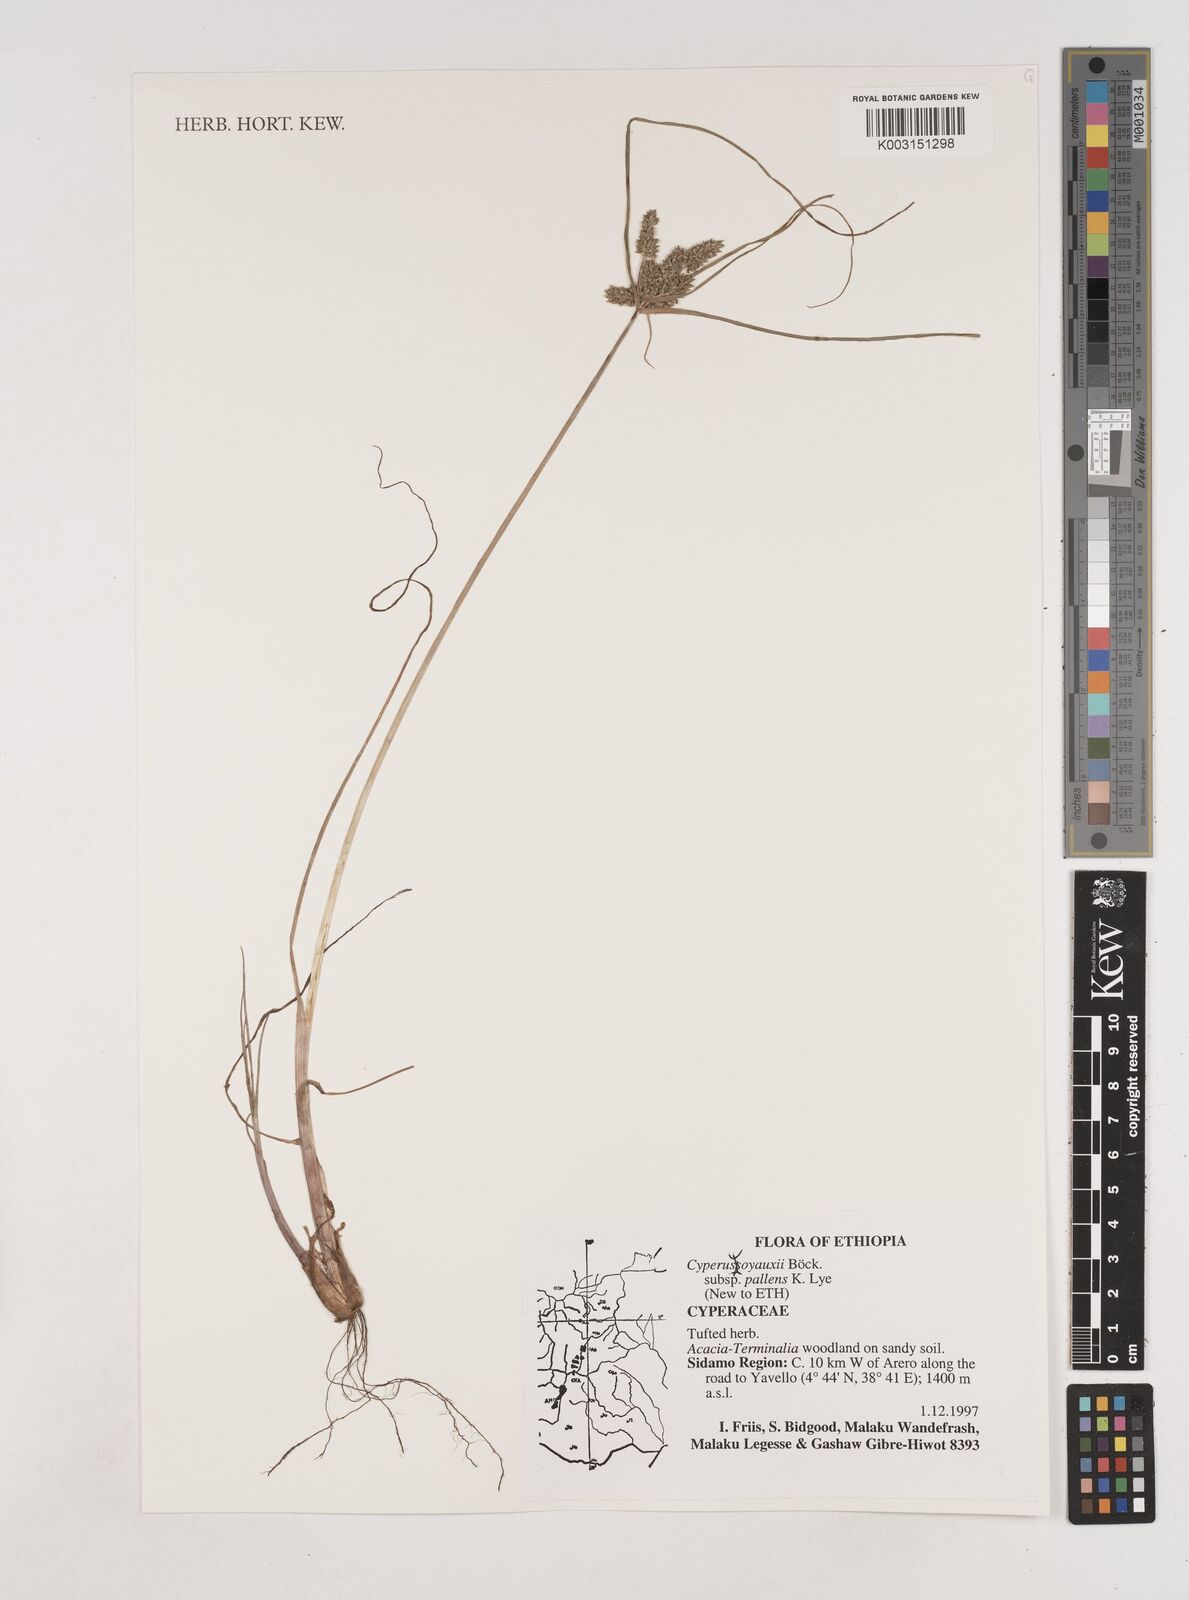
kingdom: Plantae
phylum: Tracheophyta
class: Liliopsida
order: Poales
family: Cyperaceae
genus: Cyperus
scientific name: Cyperus soyauxii
